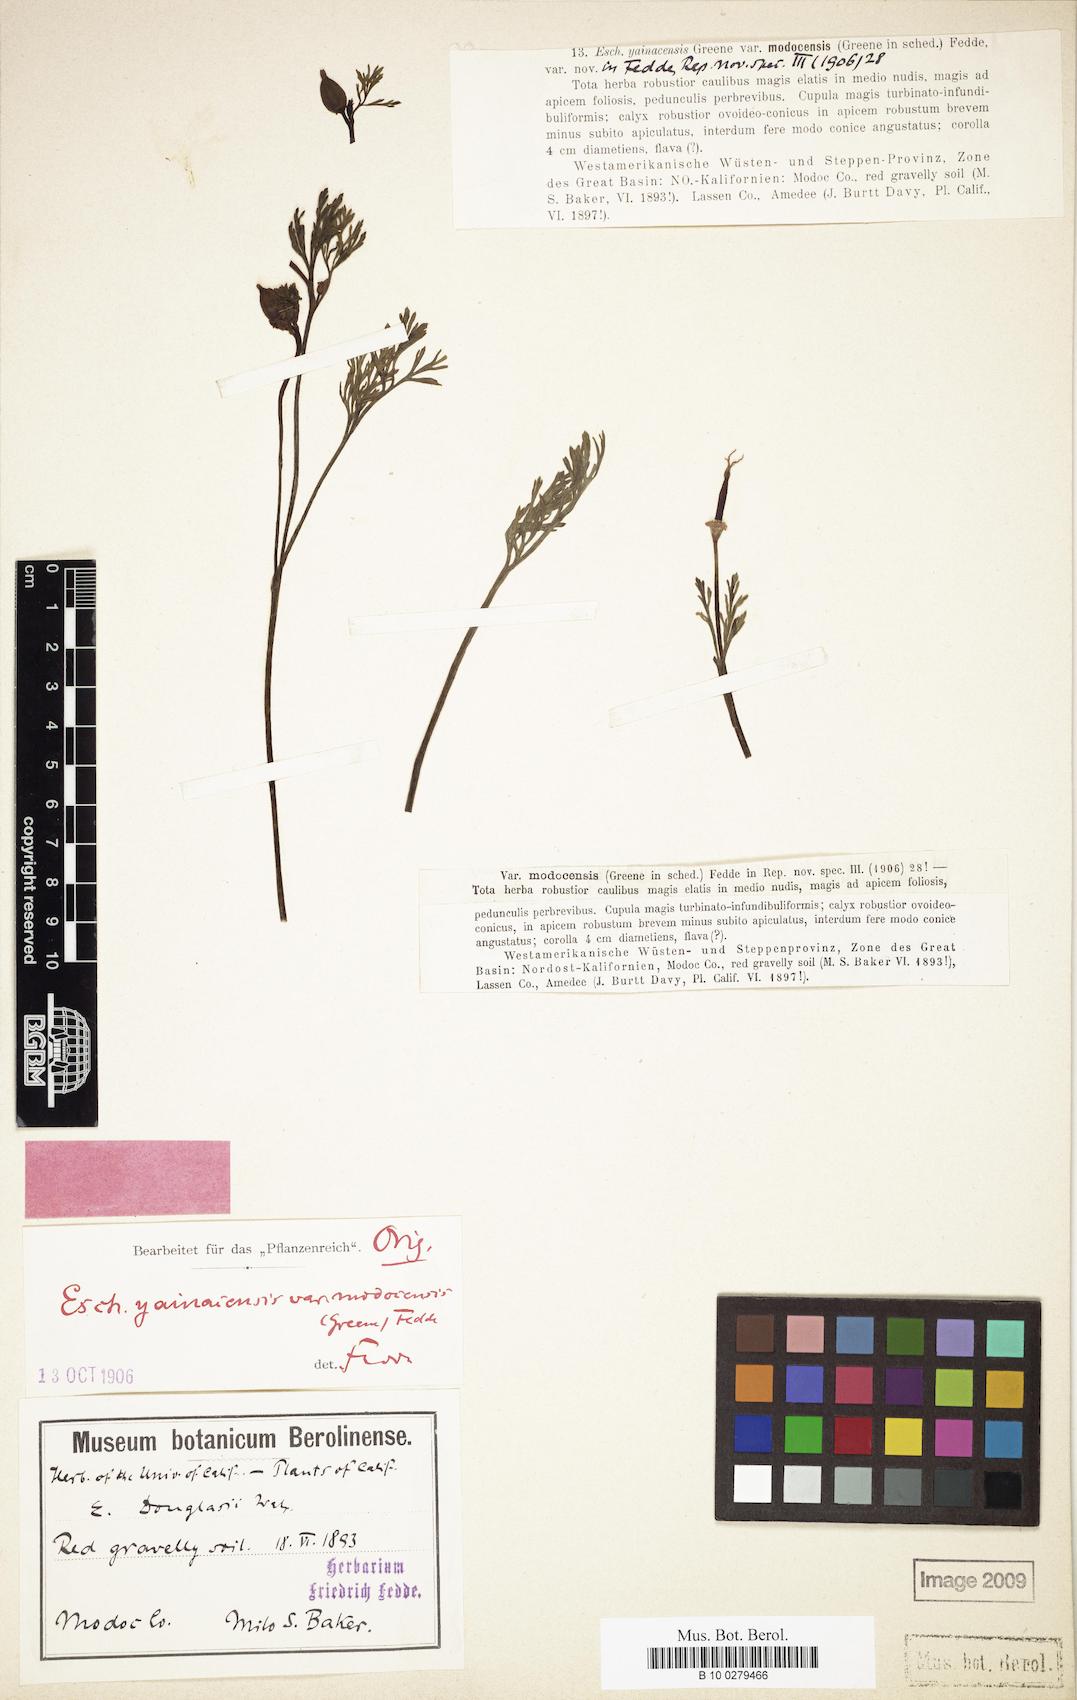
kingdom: Plantae
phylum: Tracheophyta
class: Magnoliopsida
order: Ranunculales
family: Papaveraceae
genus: Eschscholzia
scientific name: Eschscholzia californica
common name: California poppy
